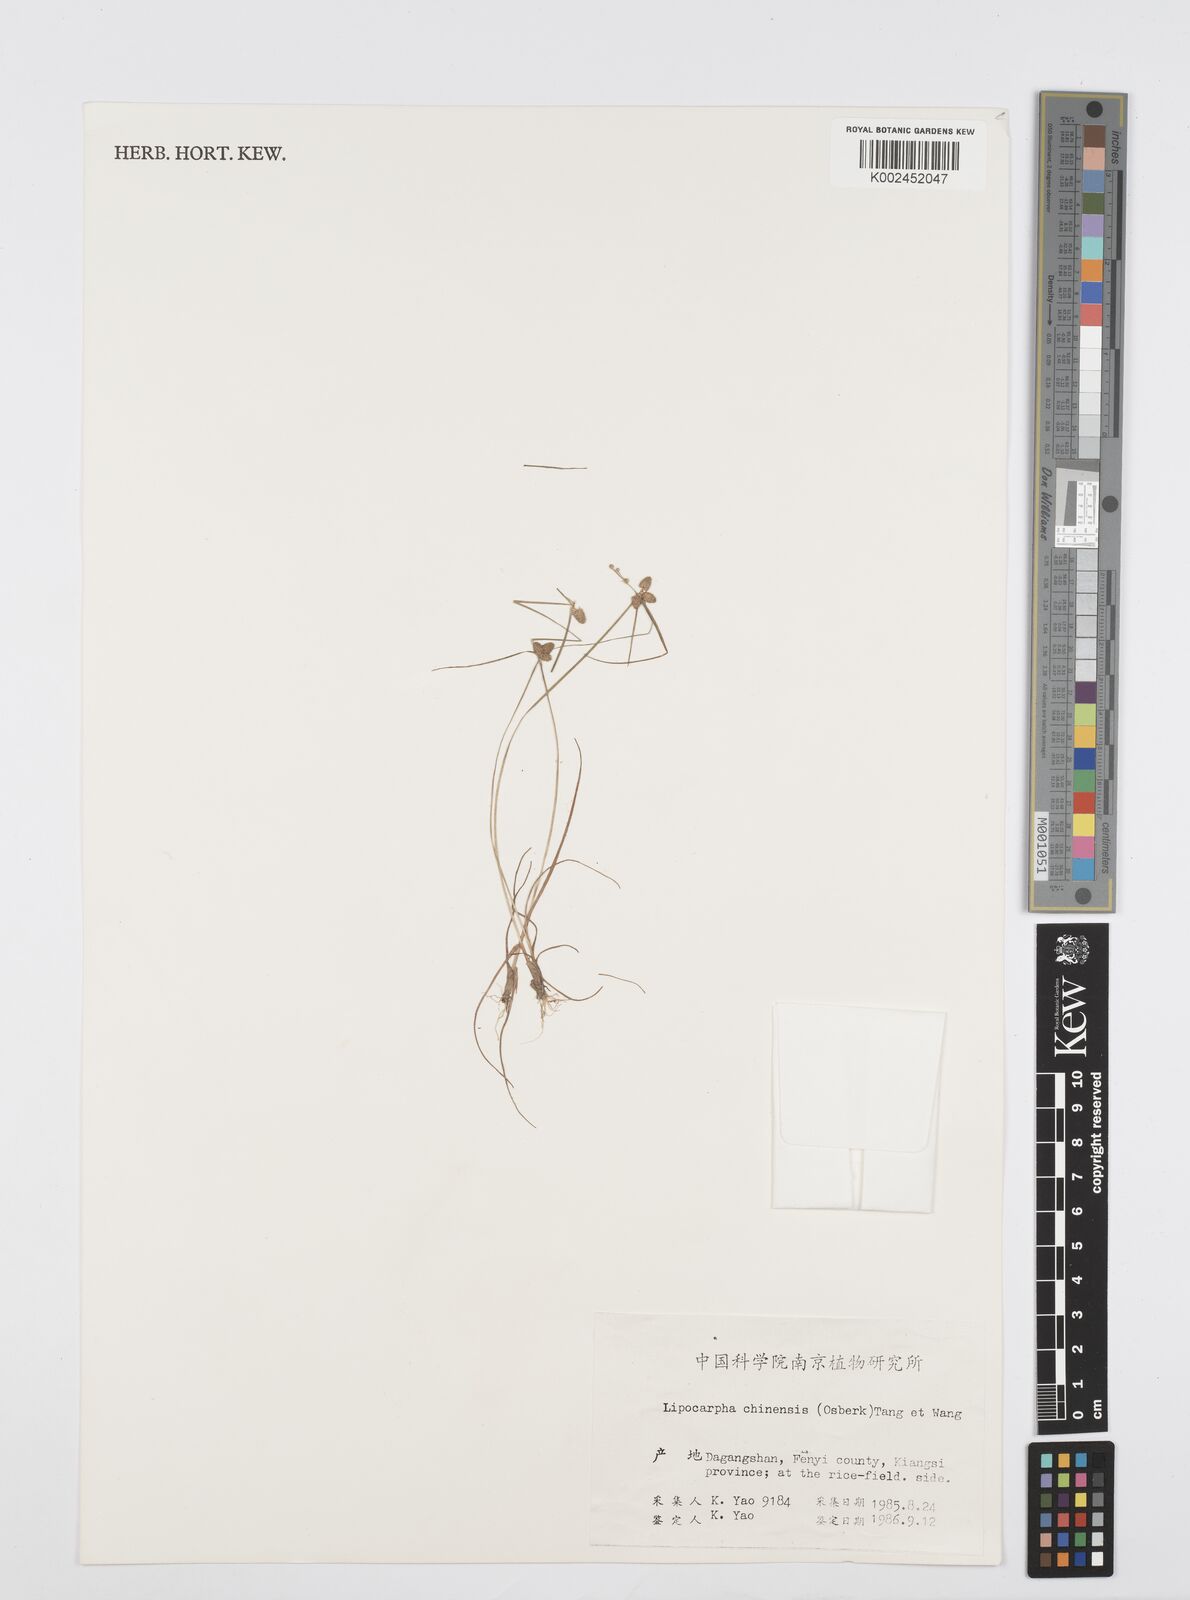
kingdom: Plantae
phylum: Tracheophyta
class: Liliopsida
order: Poales
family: Cyperaceae
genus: Cyperus
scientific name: Cyperus albescens
